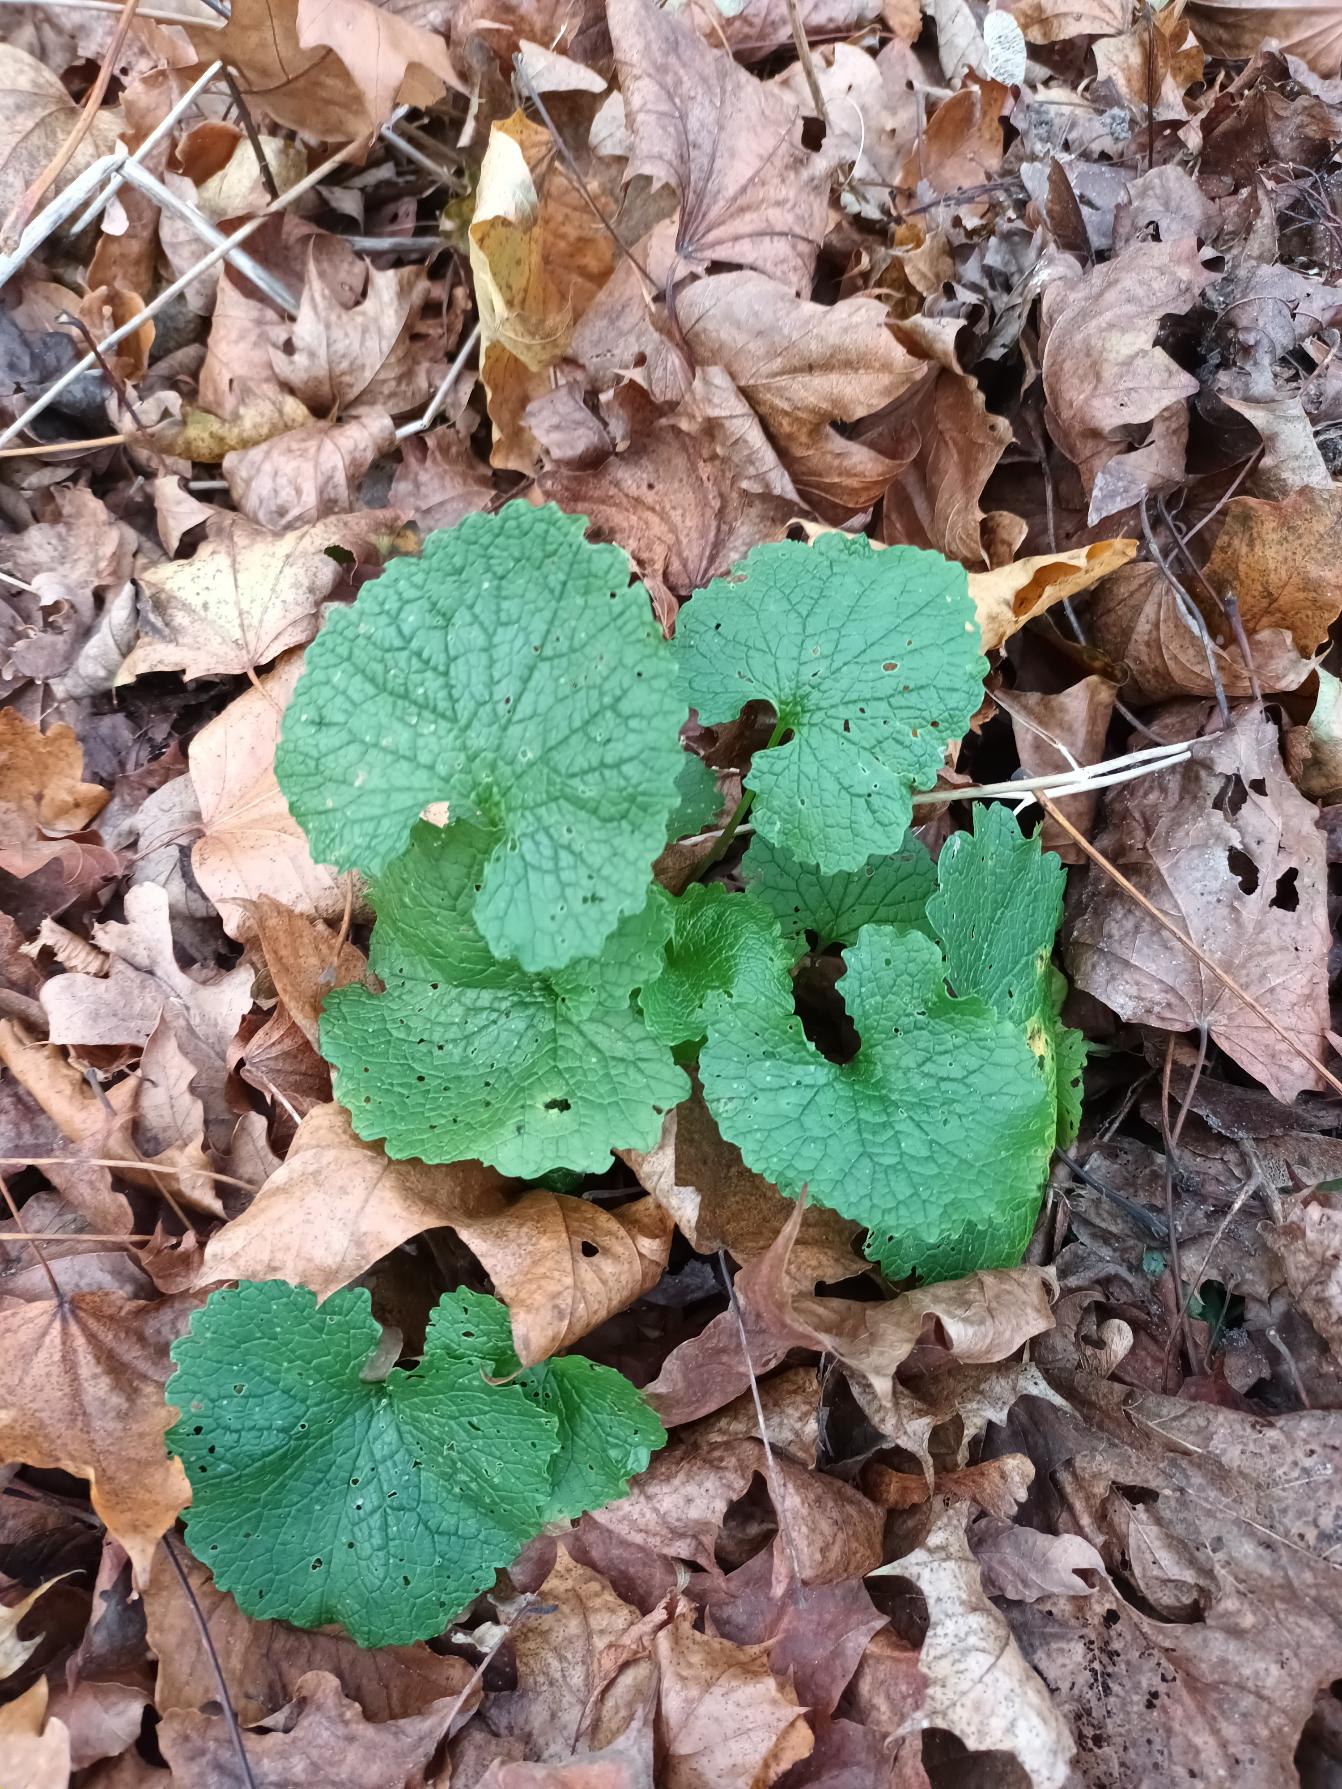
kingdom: Plantae
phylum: Tracheophyta
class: Magnoliopsida
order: Brassicales
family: Brassicaceae
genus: Alliaria
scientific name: Alliaria petiolata
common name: Løgkarse
